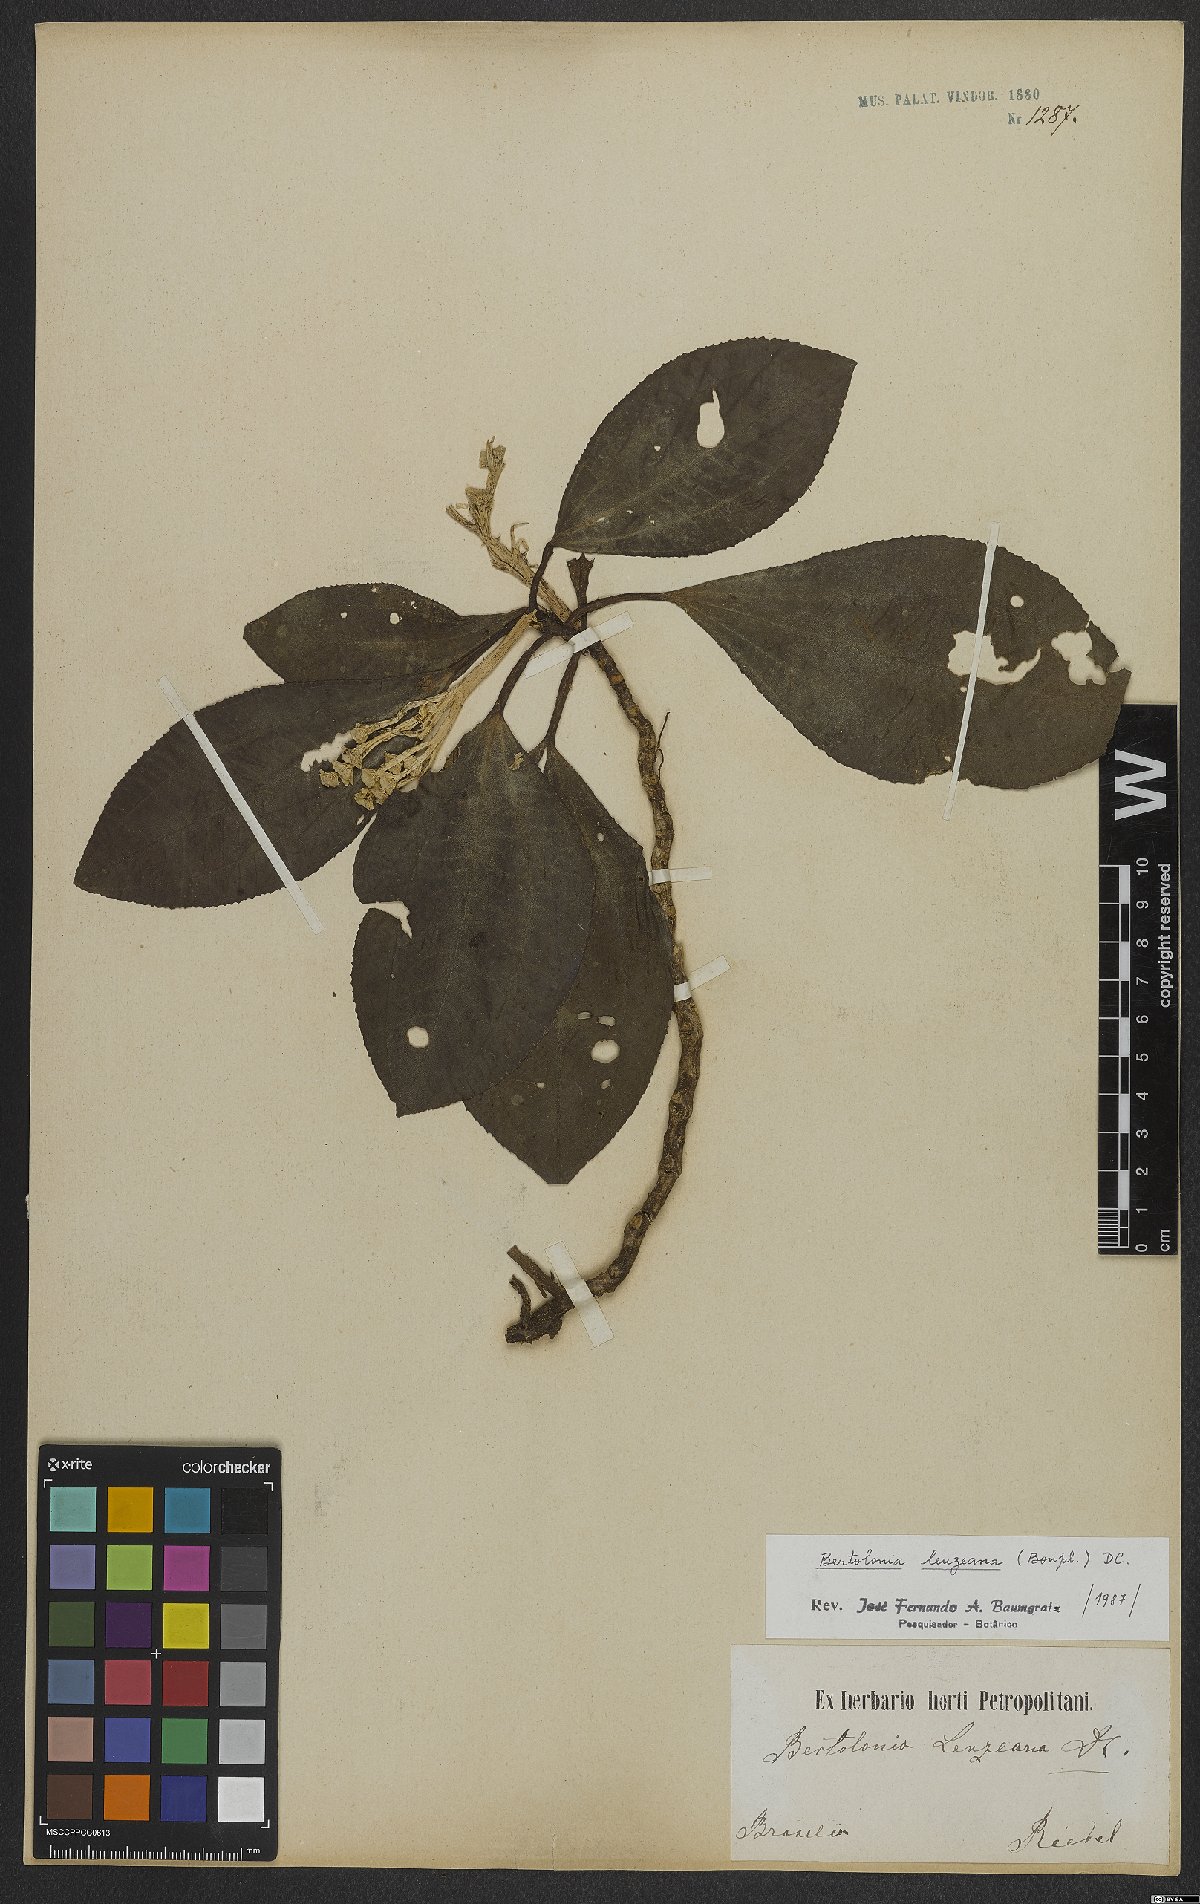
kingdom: Plantae
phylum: Tracheophyta
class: Magnoliopsida
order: Myrtales
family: Melastomataceae
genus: Bertolonia
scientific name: Bertolonia leuzeana
